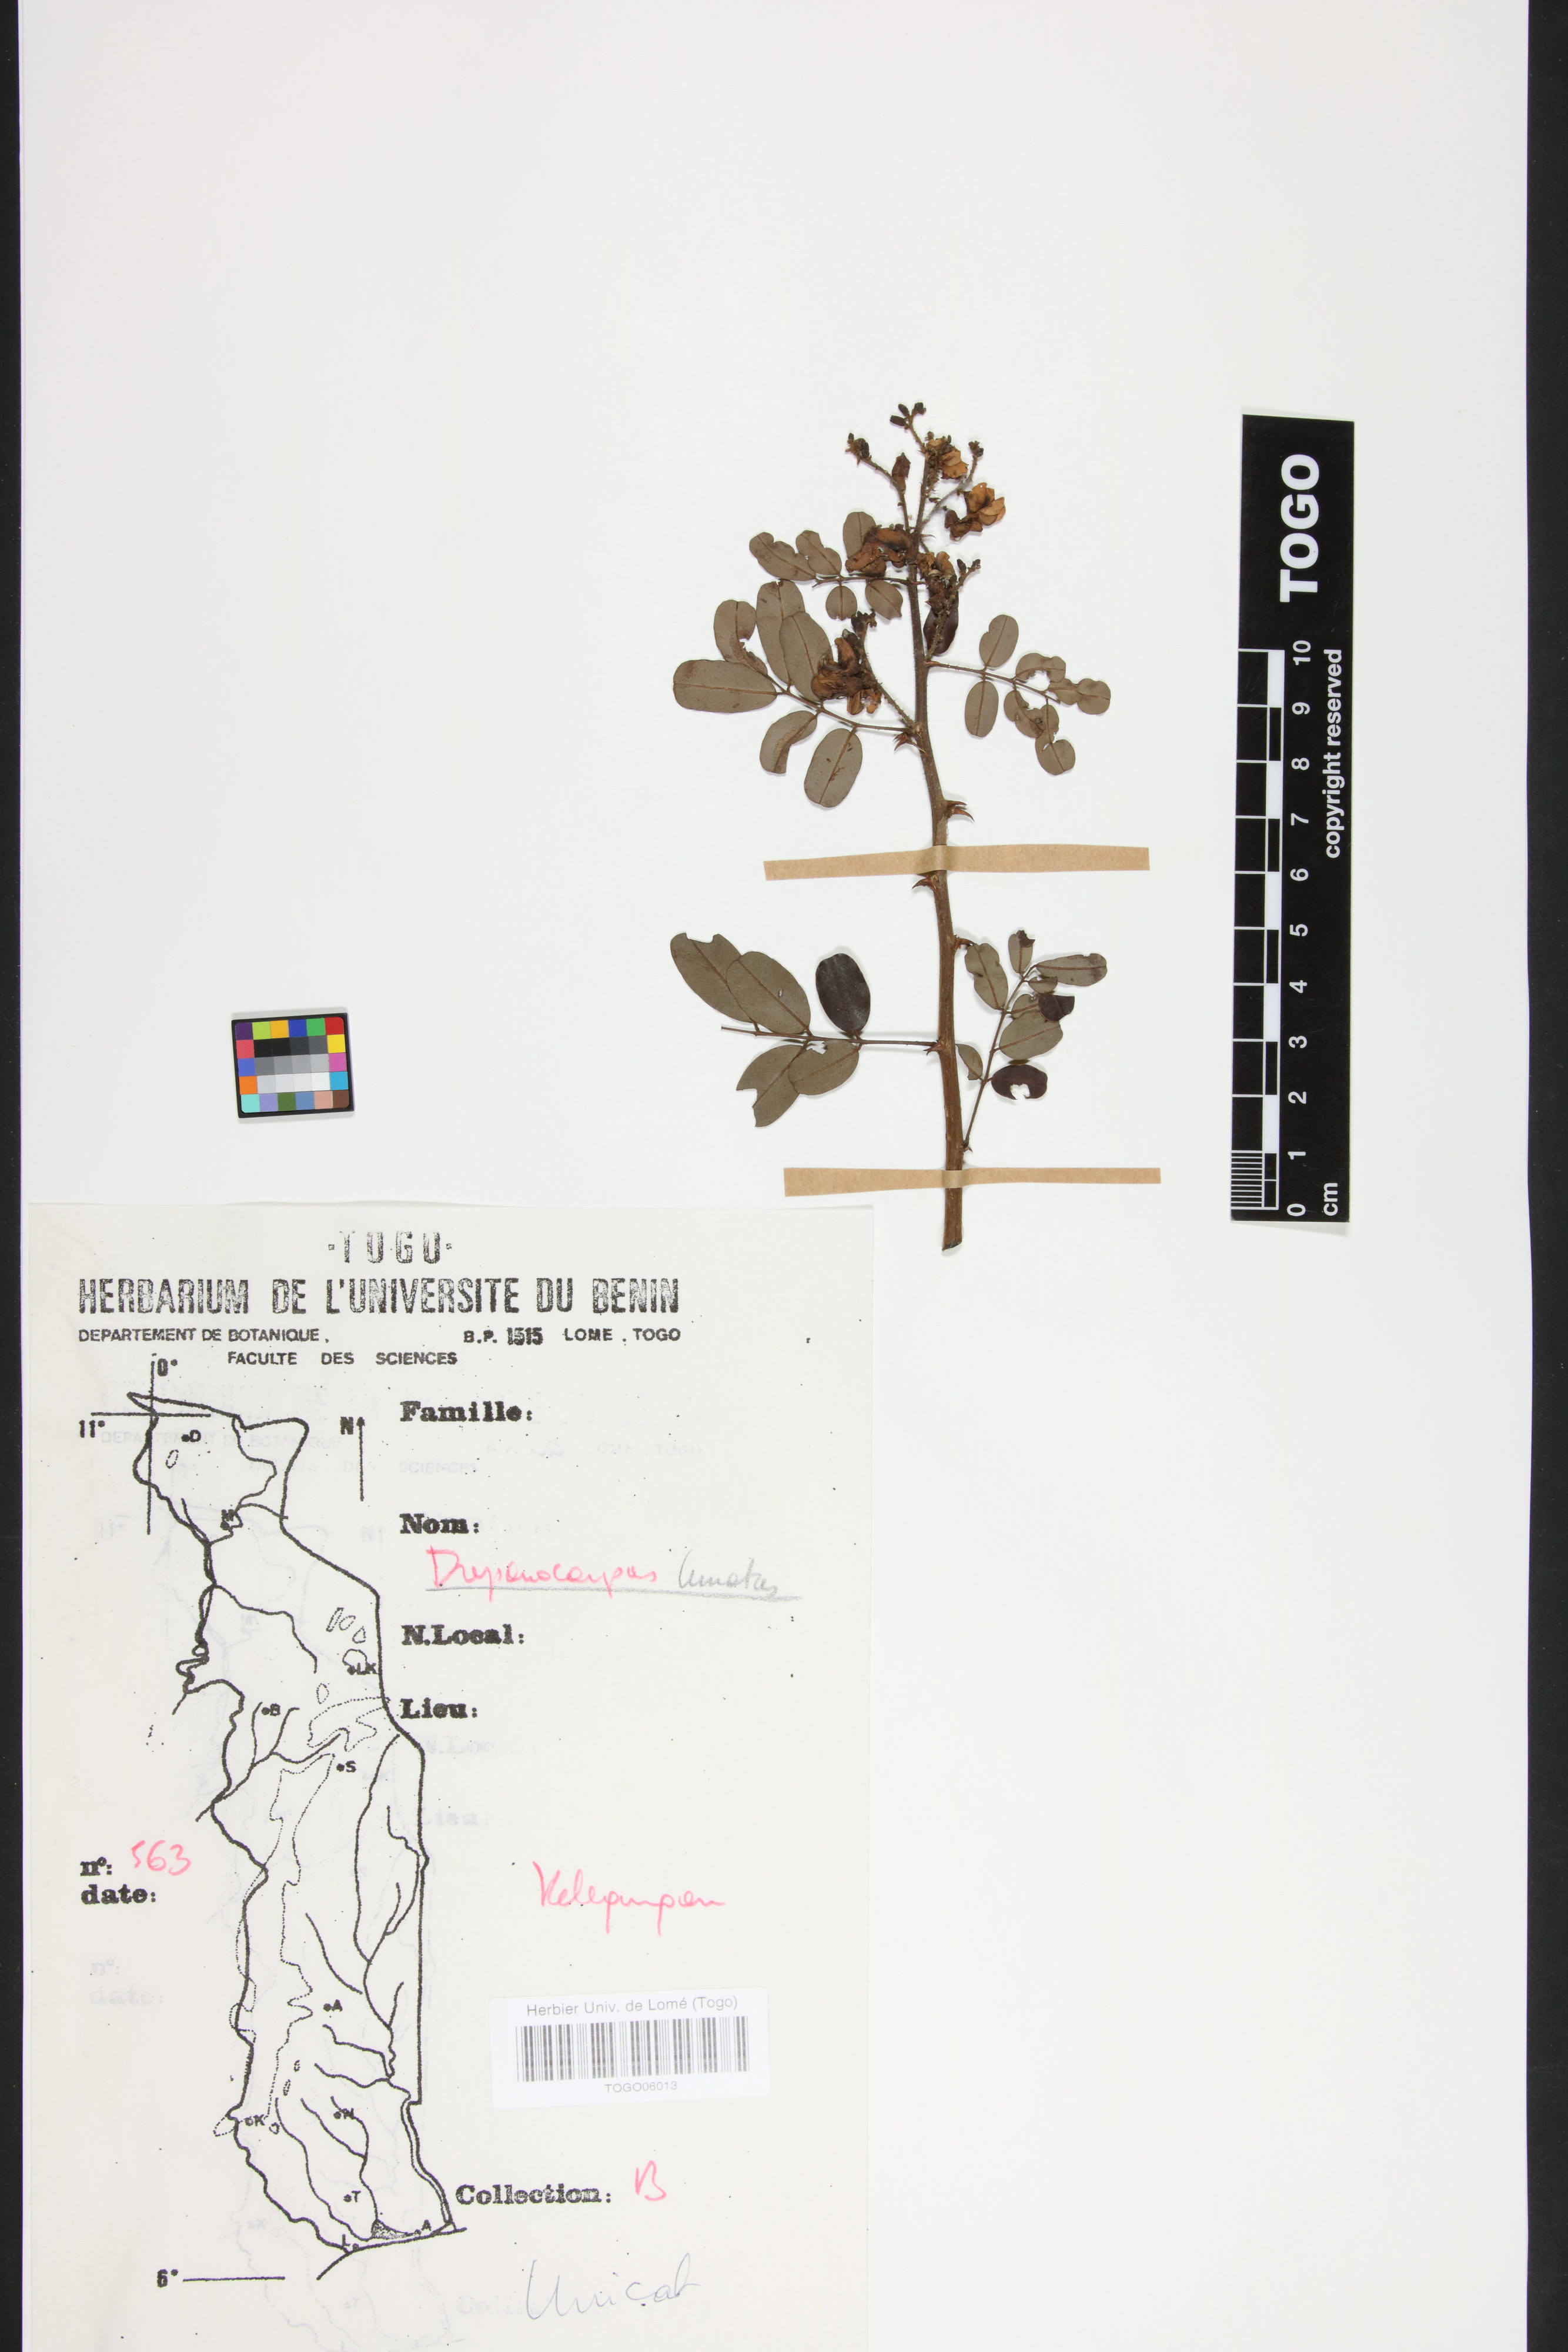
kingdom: Plantae
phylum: Tracheophyta
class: Magnoliopsida
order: Fabales
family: Fabaceae
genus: Machaerium
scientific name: Machaerium lunatum
